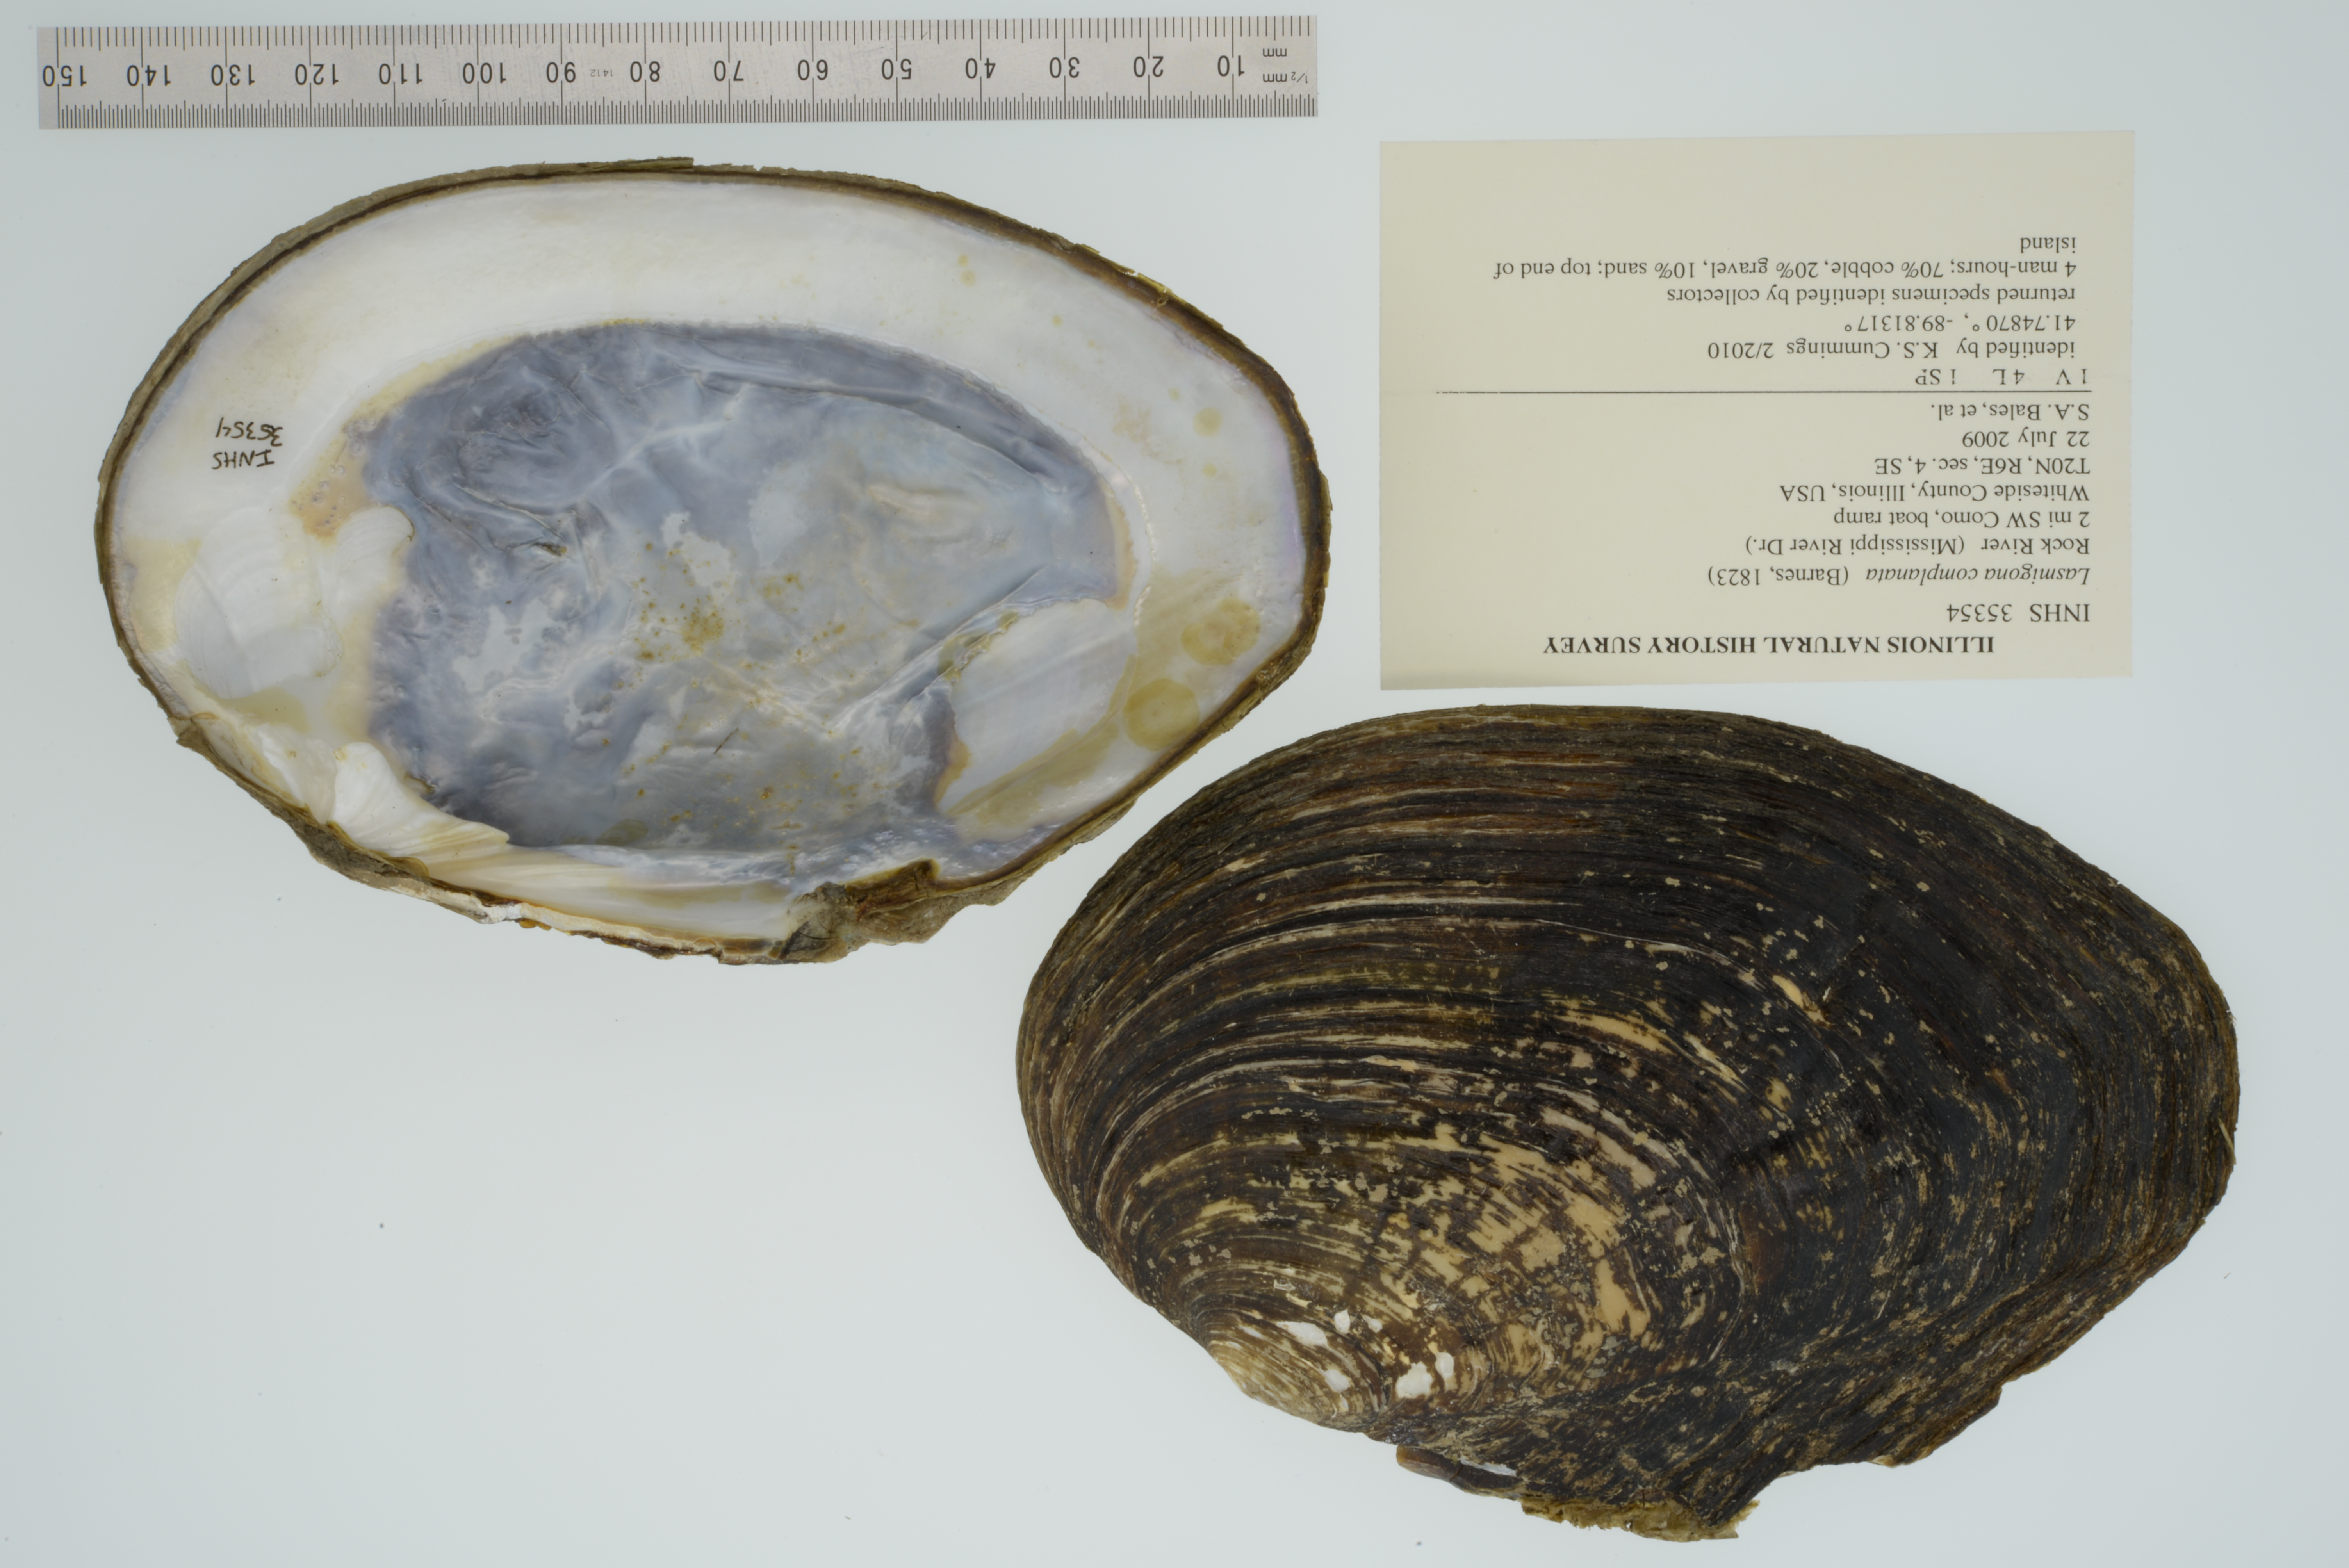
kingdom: Animalia
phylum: Mollusca
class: Bivalvia
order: Unionida
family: Unionidae
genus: Lasmigona
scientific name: Lasmigona complanata
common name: White heelsplitter
